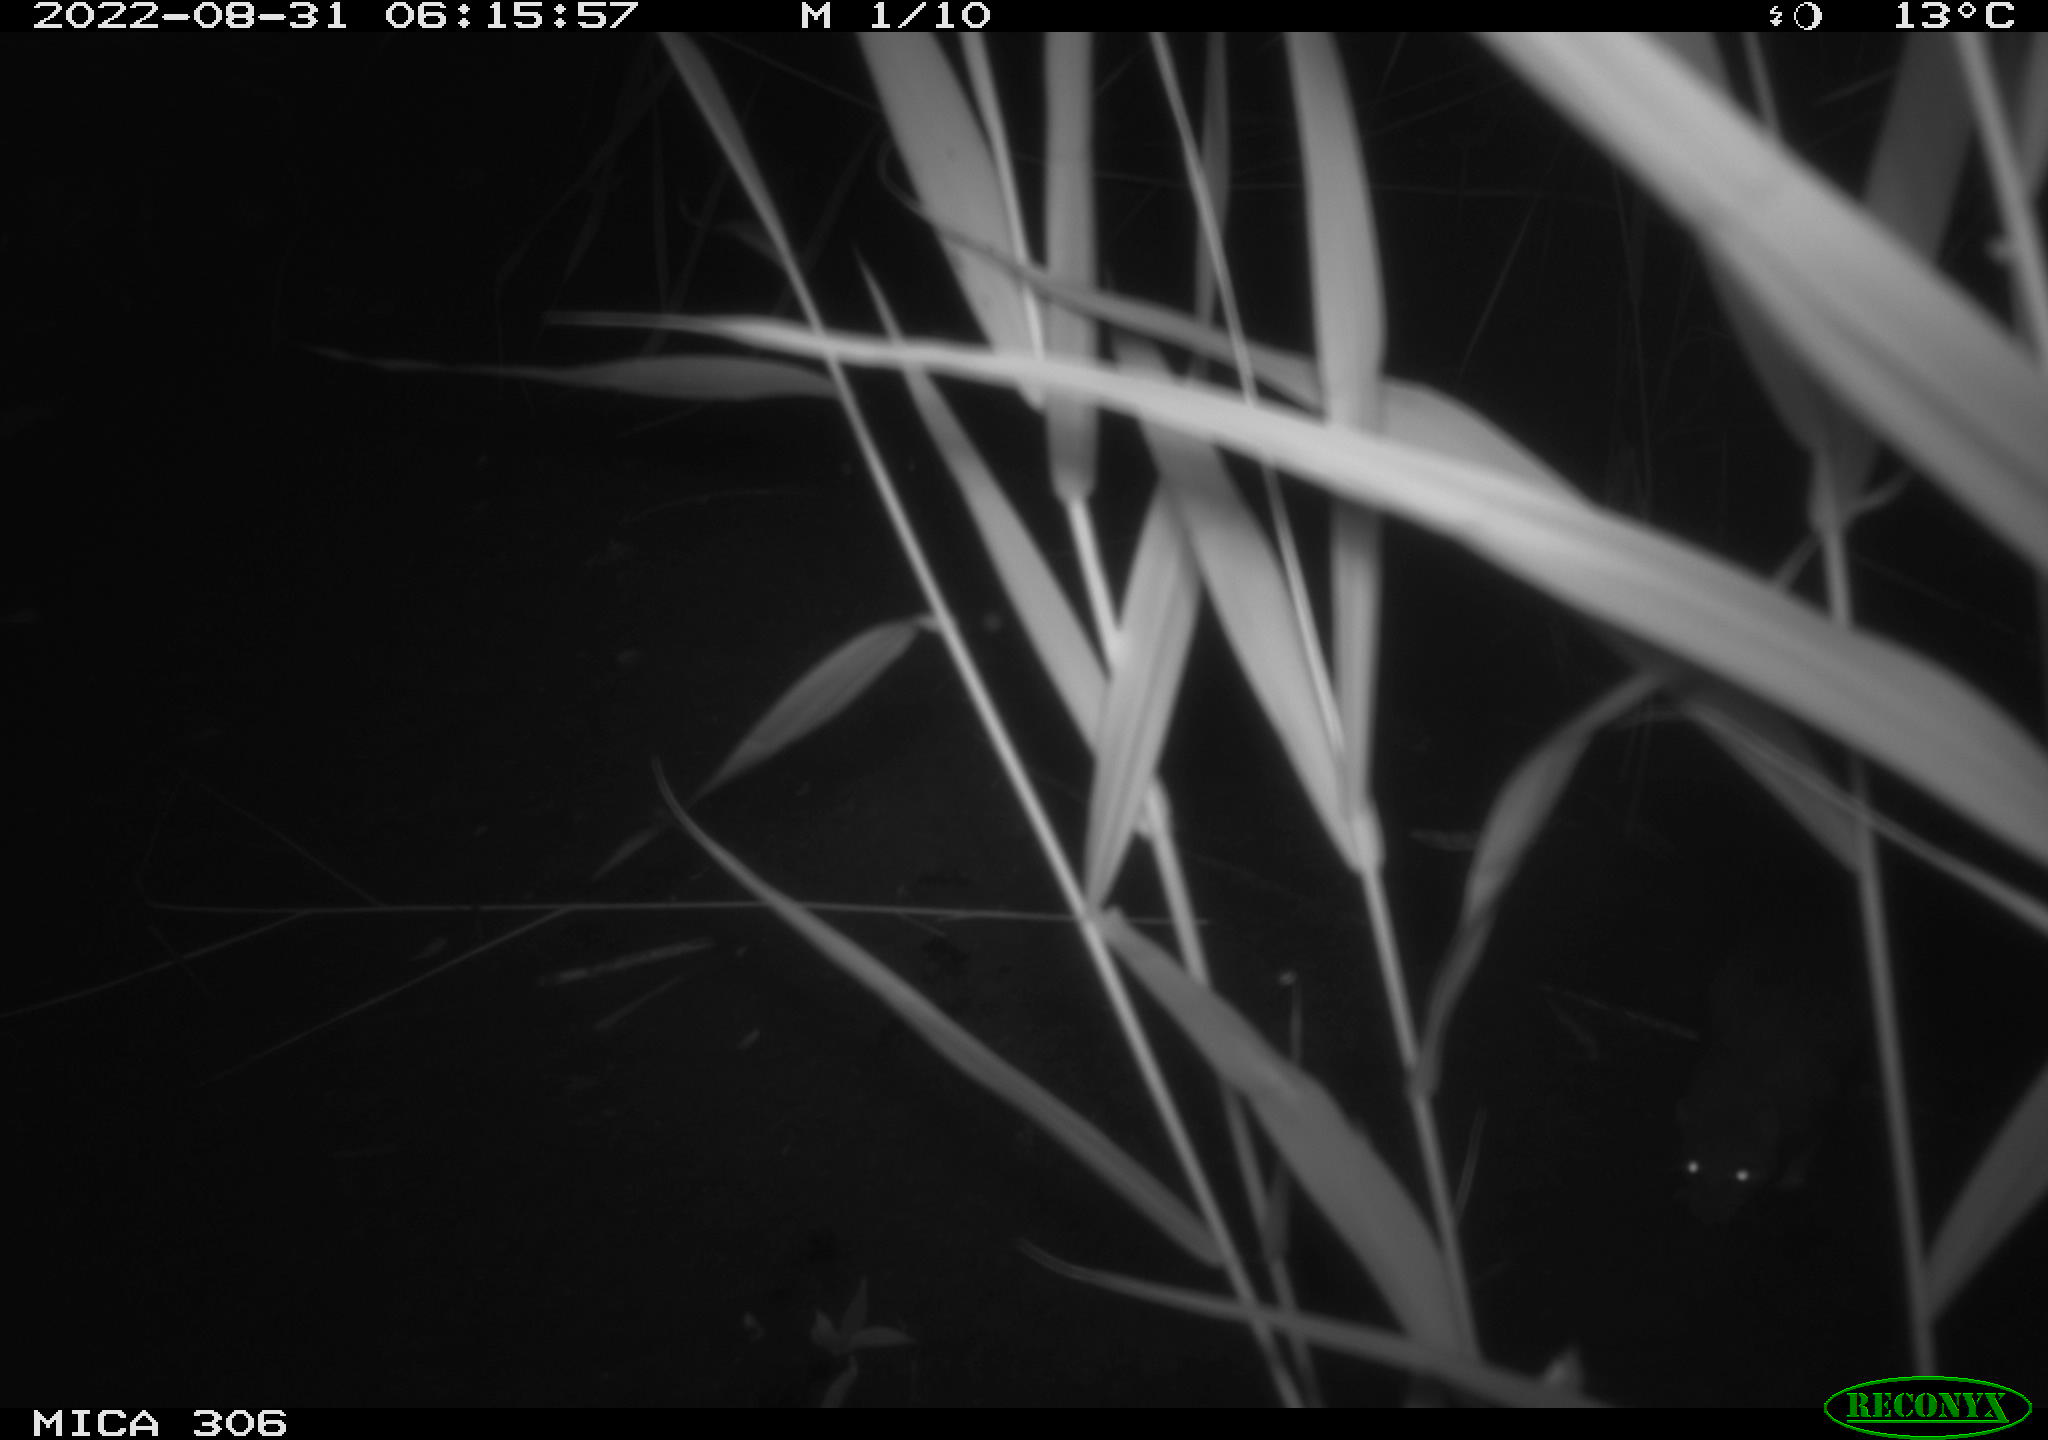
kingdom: Animalia
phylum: Chordata
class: Mammalia
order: Rodentia
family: Muridae
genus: Rattus
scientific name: Rattus norvegicus
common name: Brown rat
